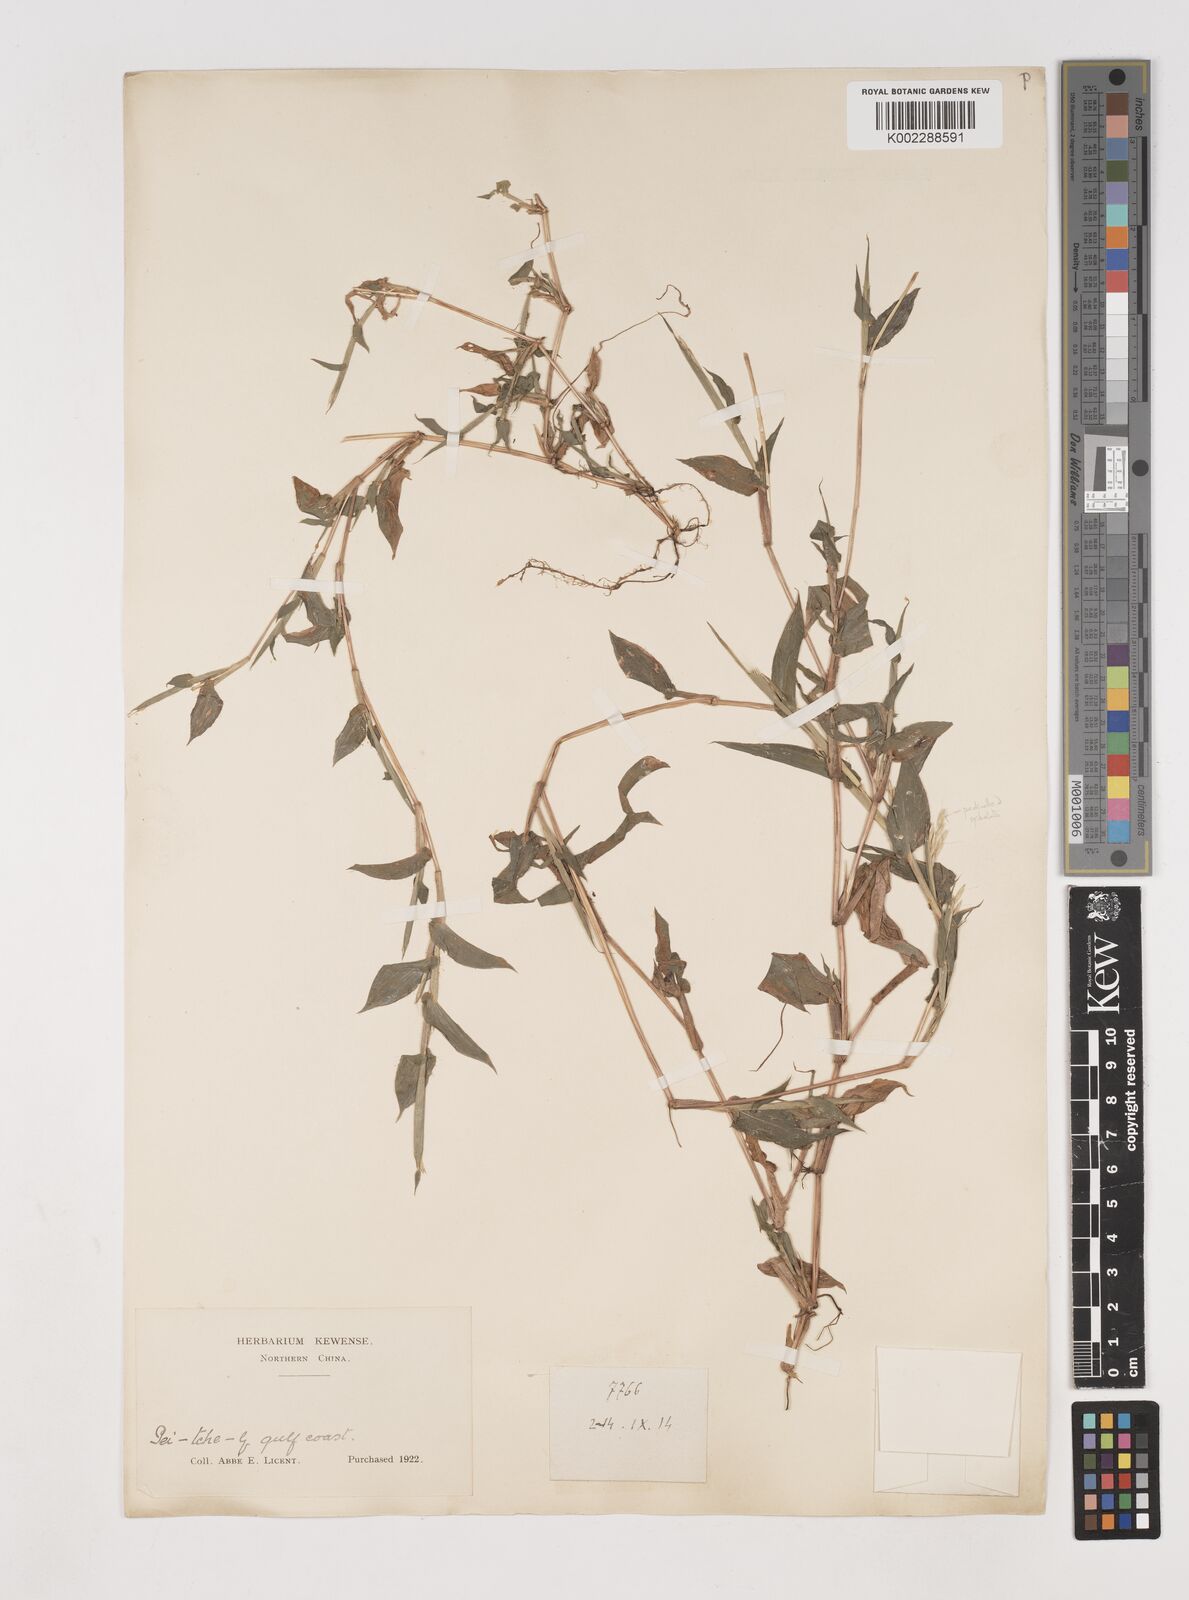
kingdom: Plantae
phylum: Tracheophyta
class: Liliopsida
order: Poales
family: Poaceae
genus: Arthraxon
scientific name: Arthraxon hispidus
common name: Small carpgrass
